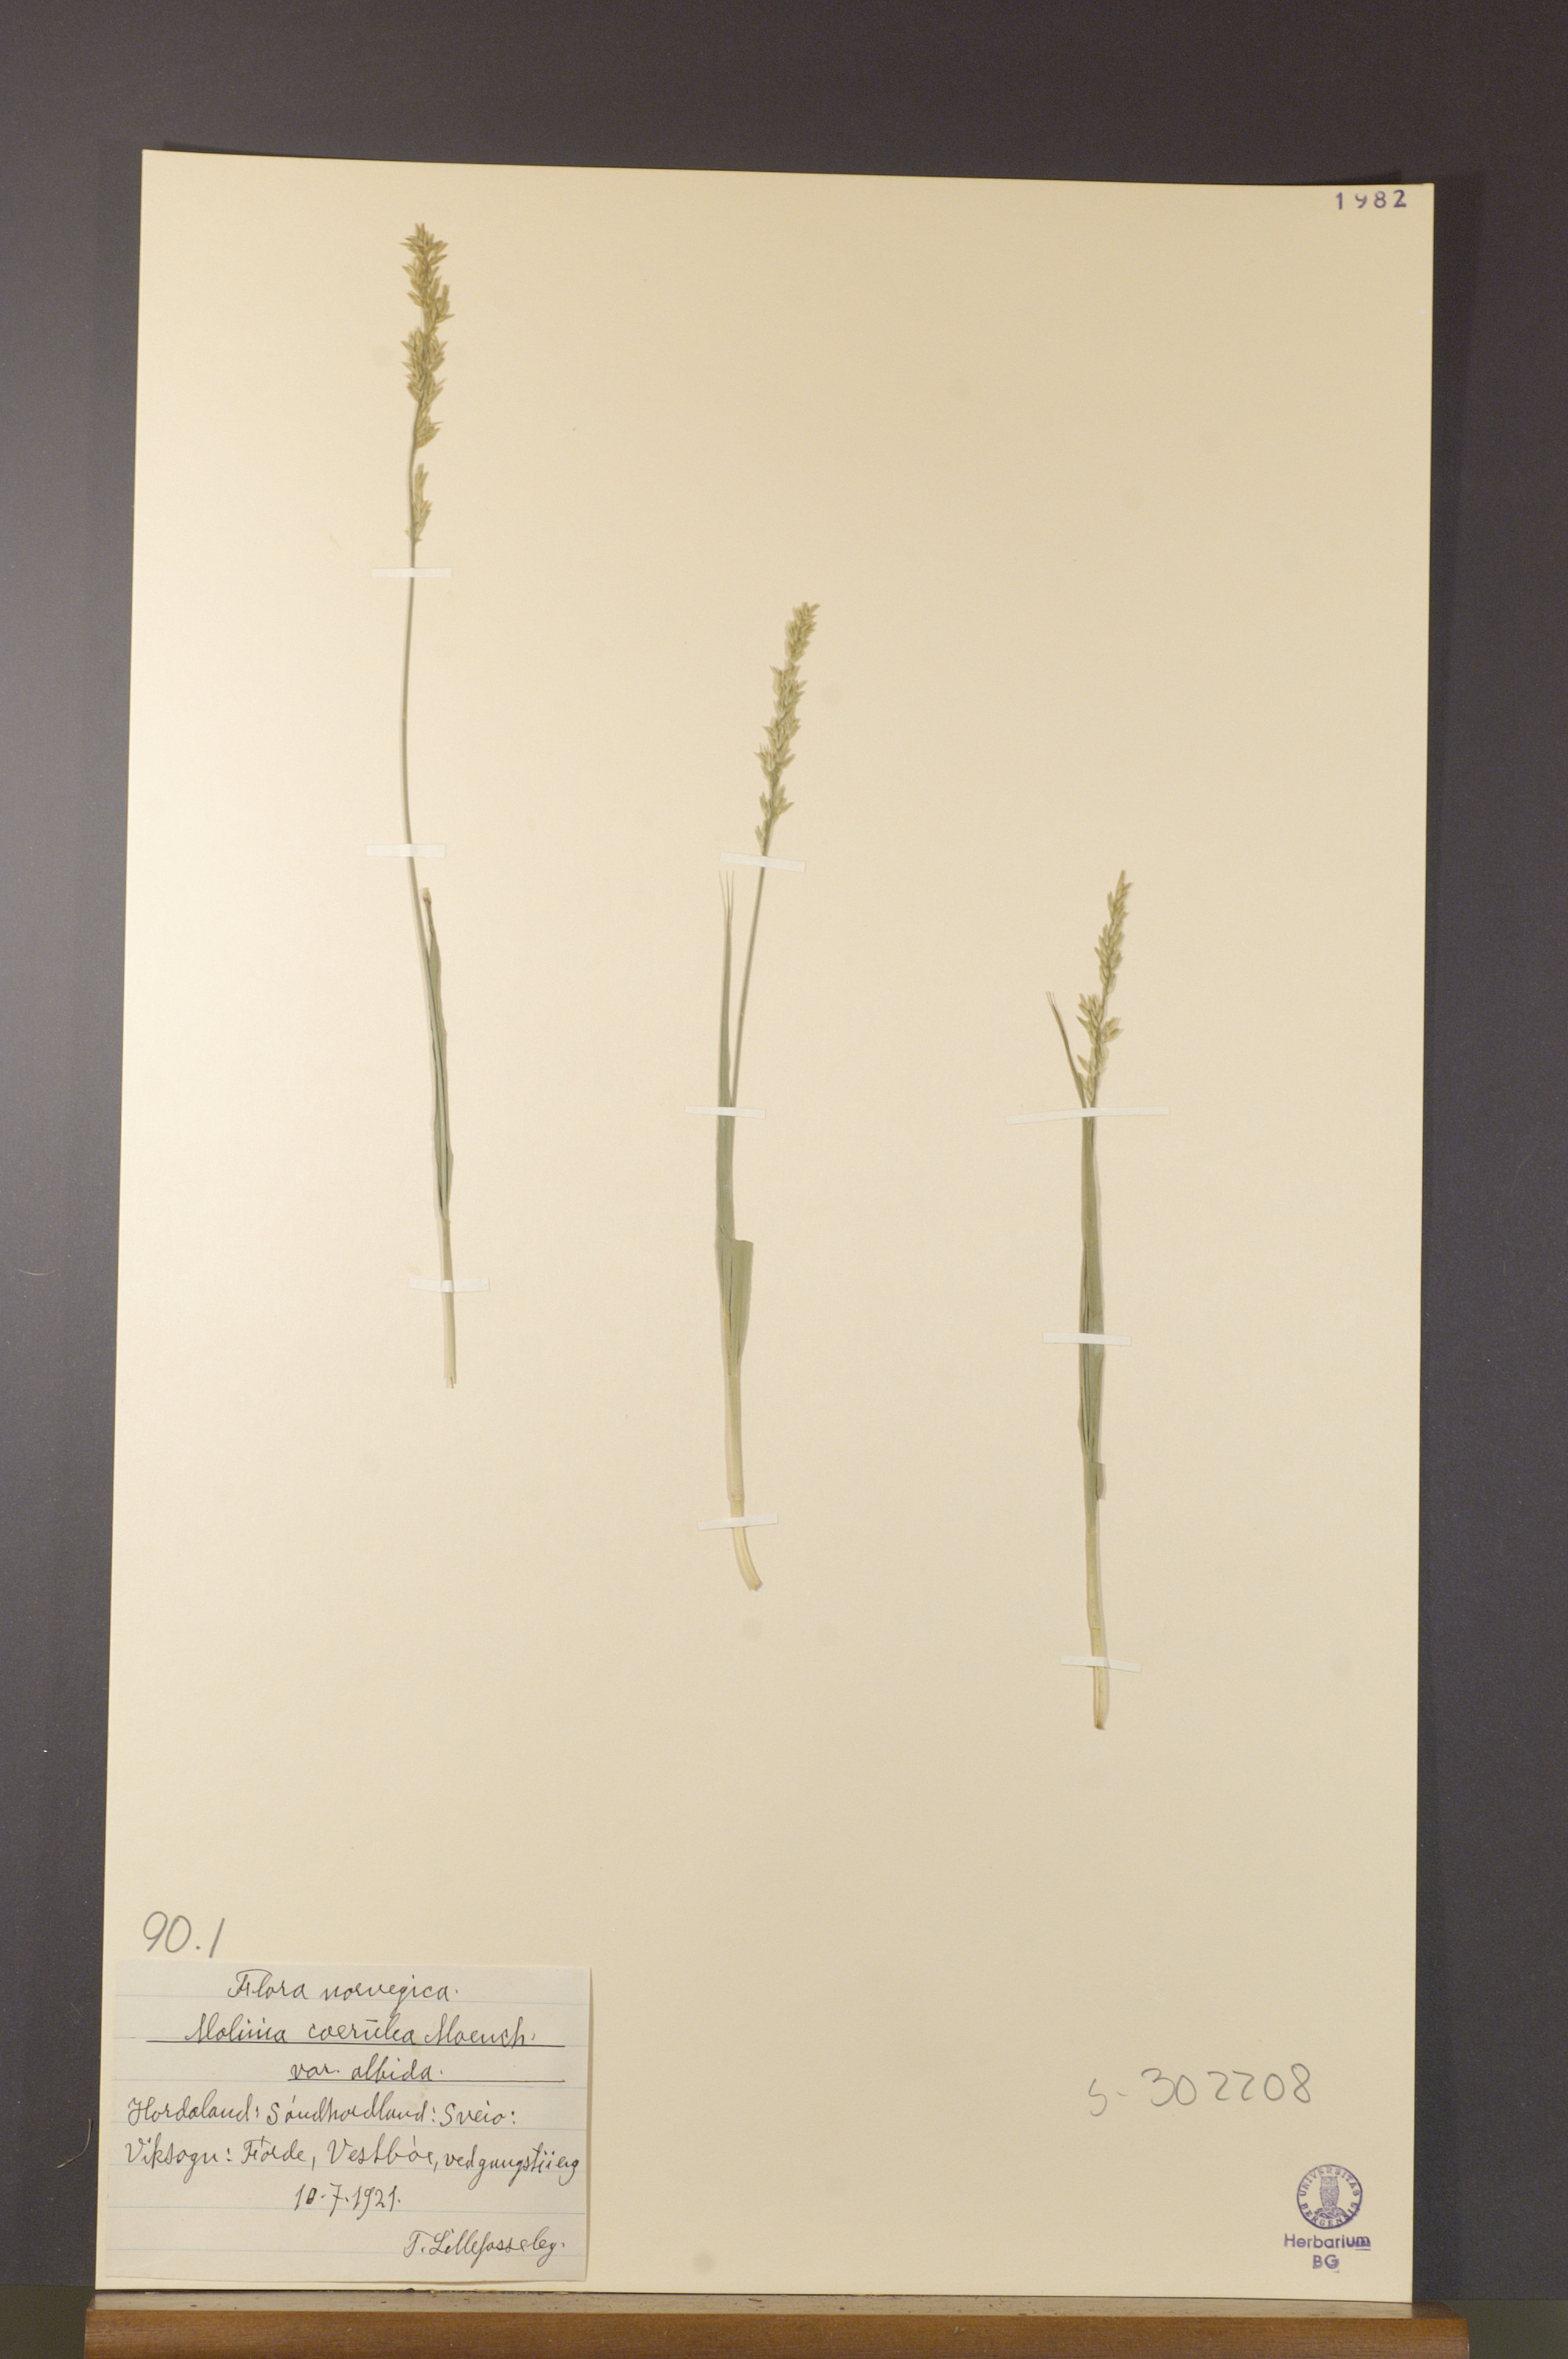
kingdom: Plantae
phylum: Tracheophyta
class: Liliopsida
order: Poales
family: Poaceae
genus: Molinia
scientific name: Molinia caerulea
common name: Purple moor-grass
